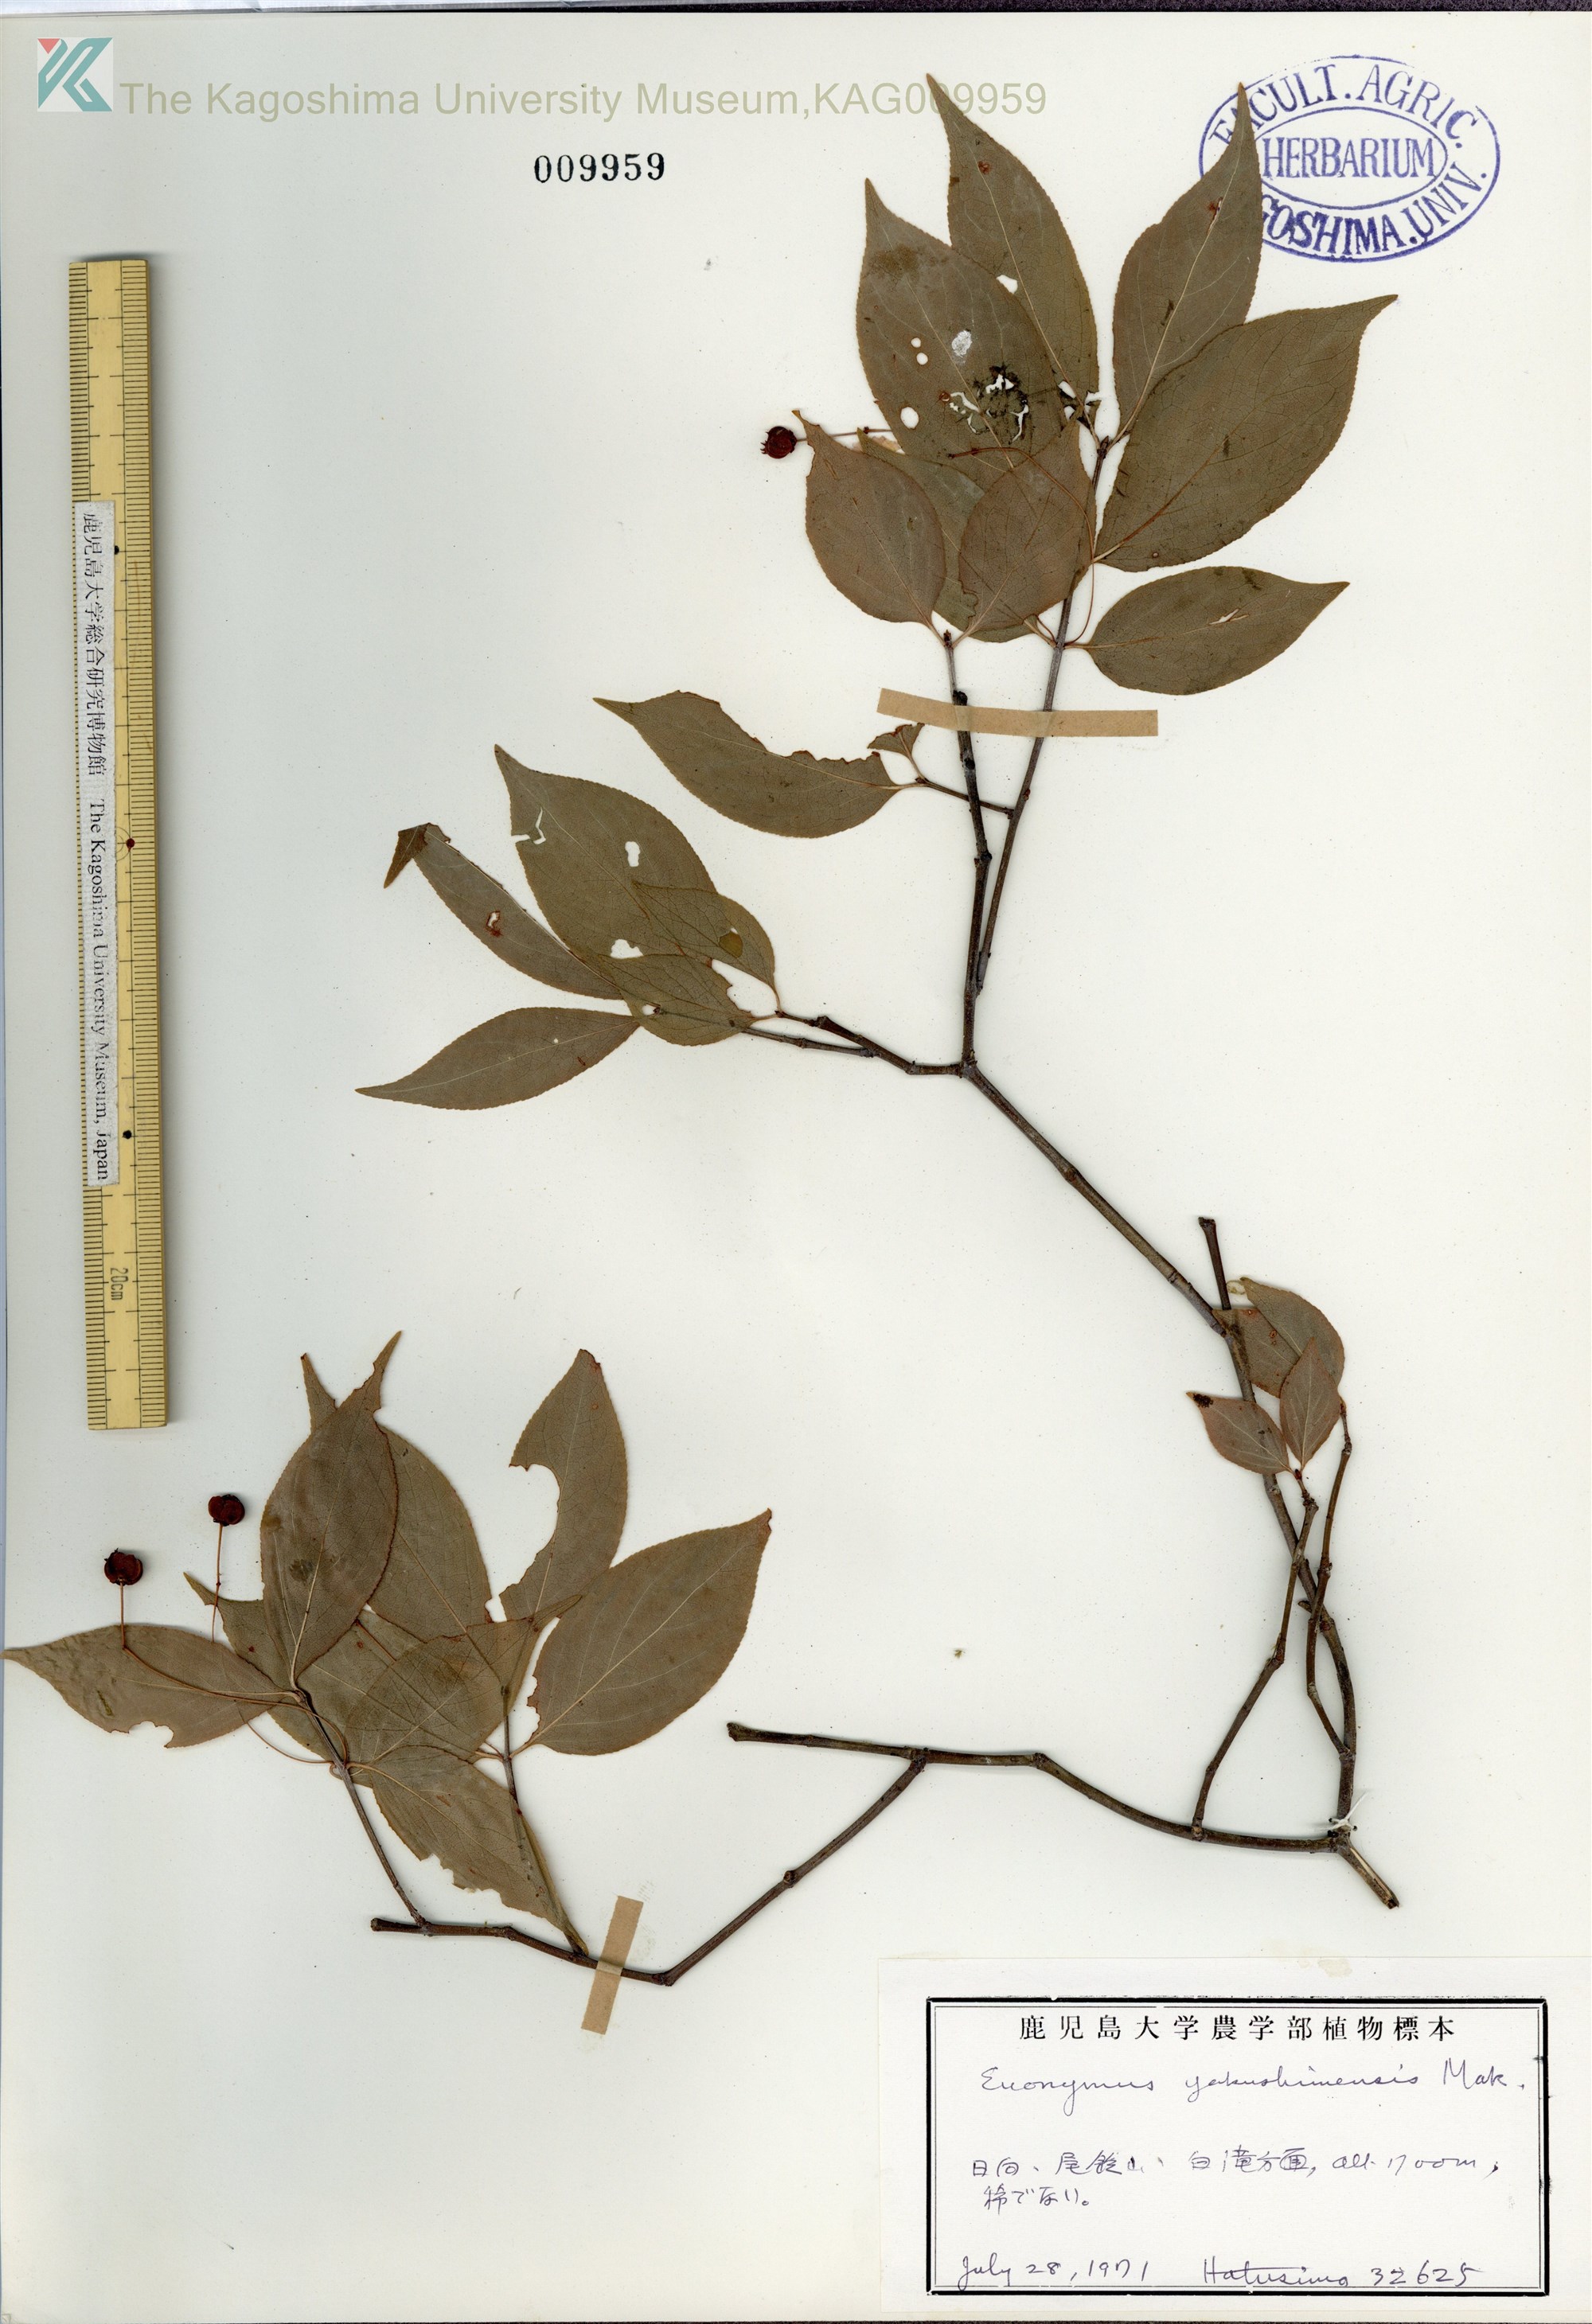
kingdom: Plantae
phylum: Tracheophyta
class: Magnoliopsida
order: Celastrales
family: Celastraceae
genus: Euonymus
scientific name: Euonymus yakushimensis
